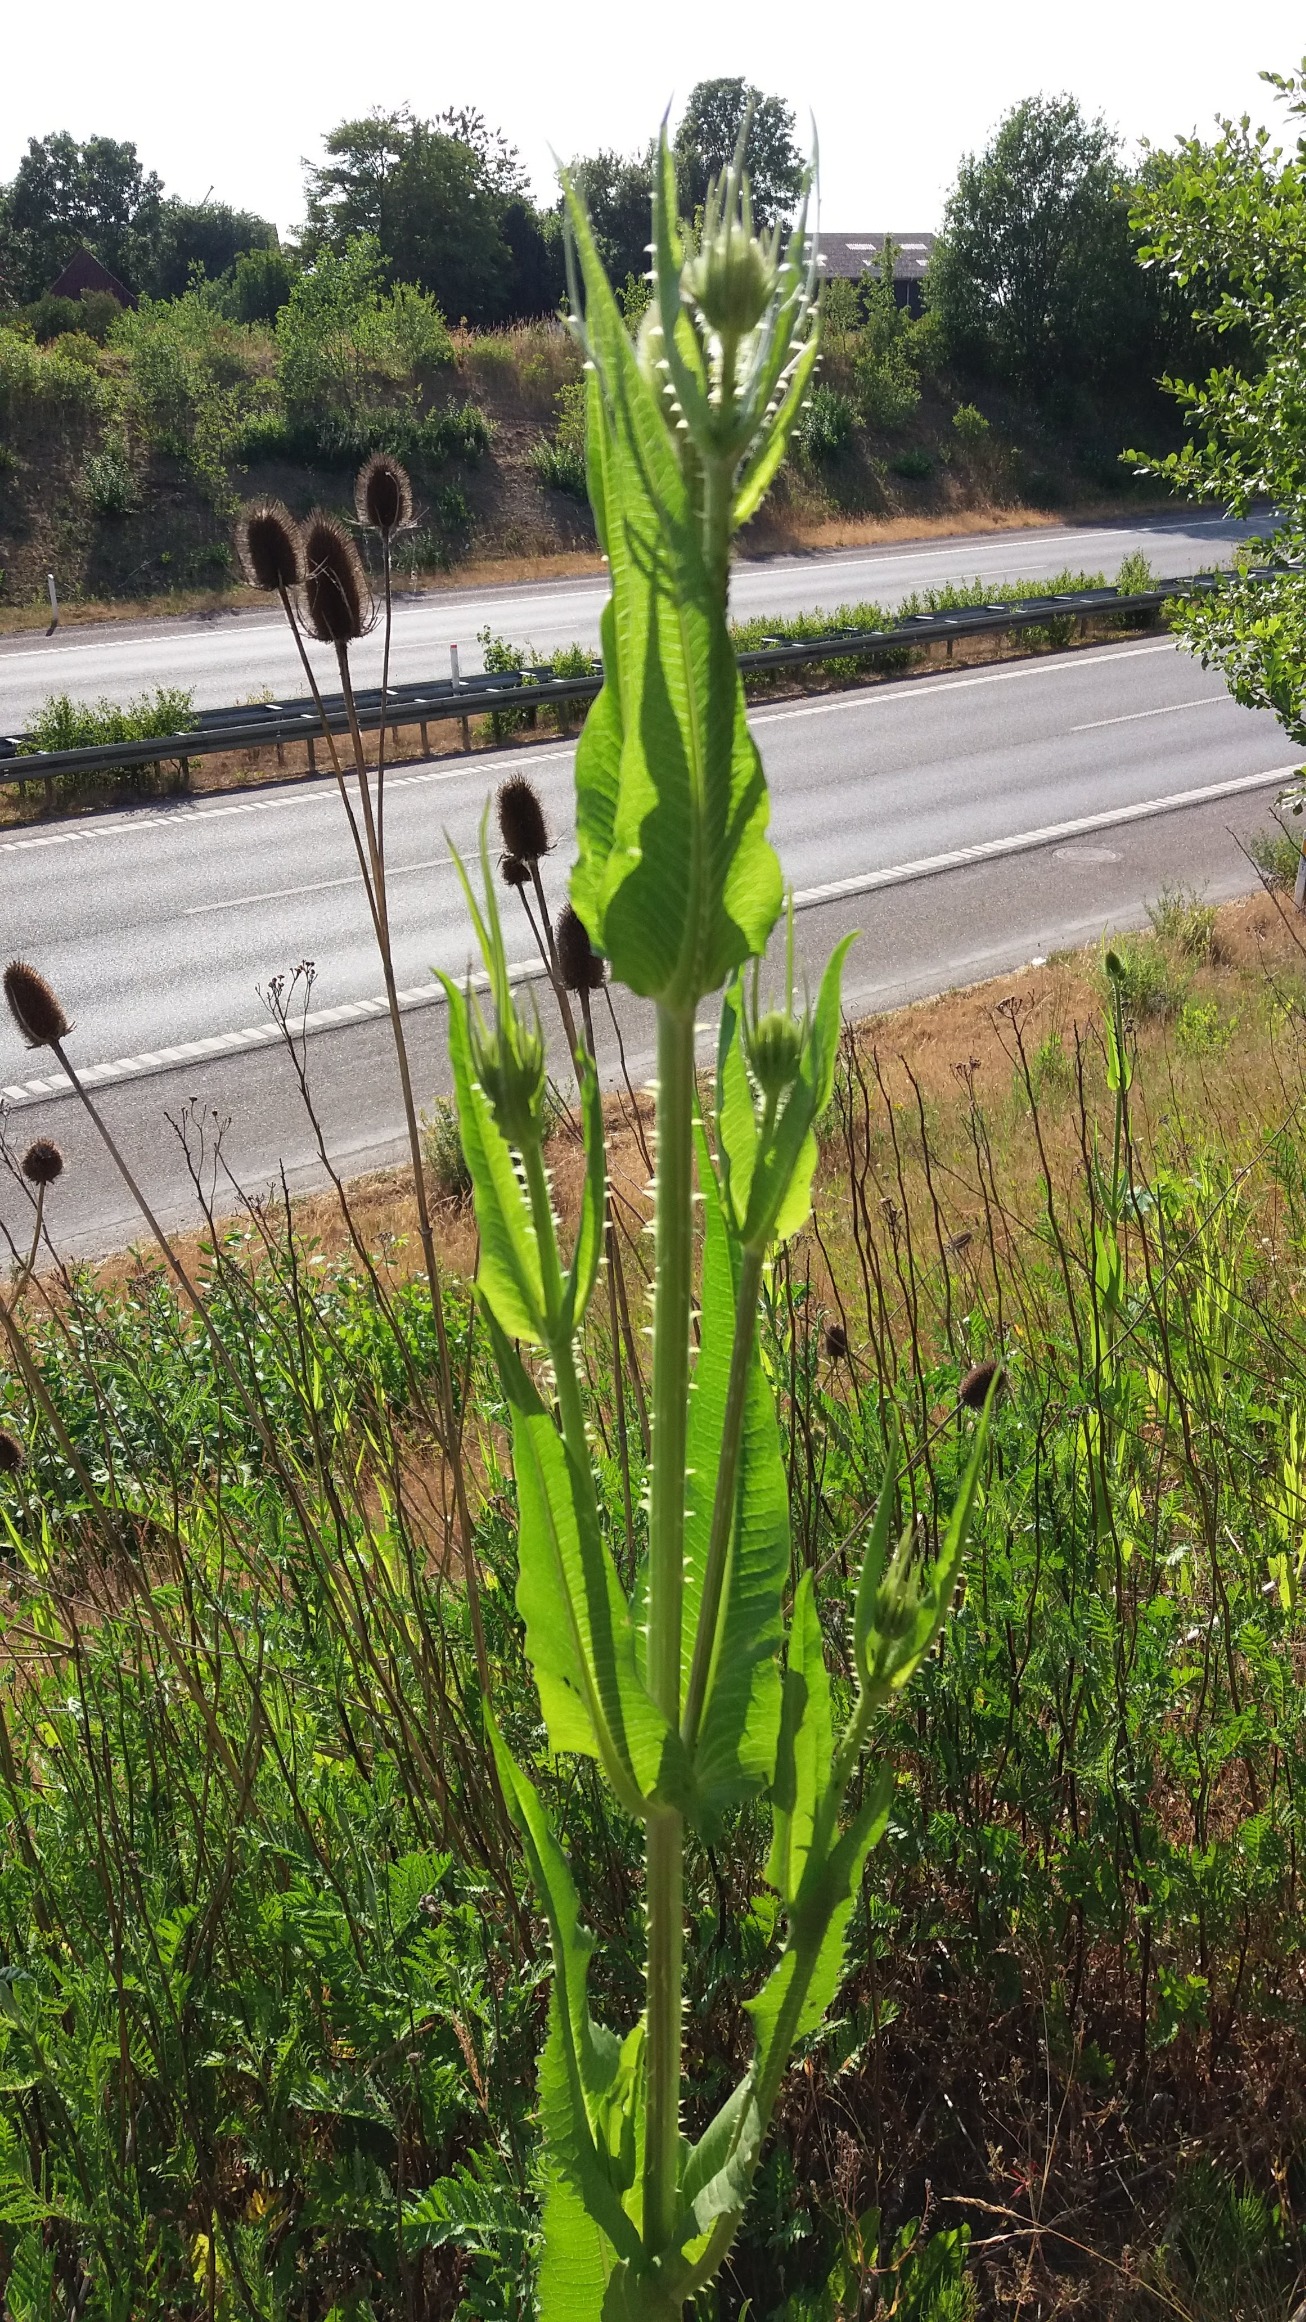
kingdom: Plantae
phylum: Tracheophyta
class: Magnoliopsida
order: Dipsacales
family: Caprifoliaceae
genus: Dipsacus
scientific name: Dipsacus fullonum
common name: Gærde-kartebolle
